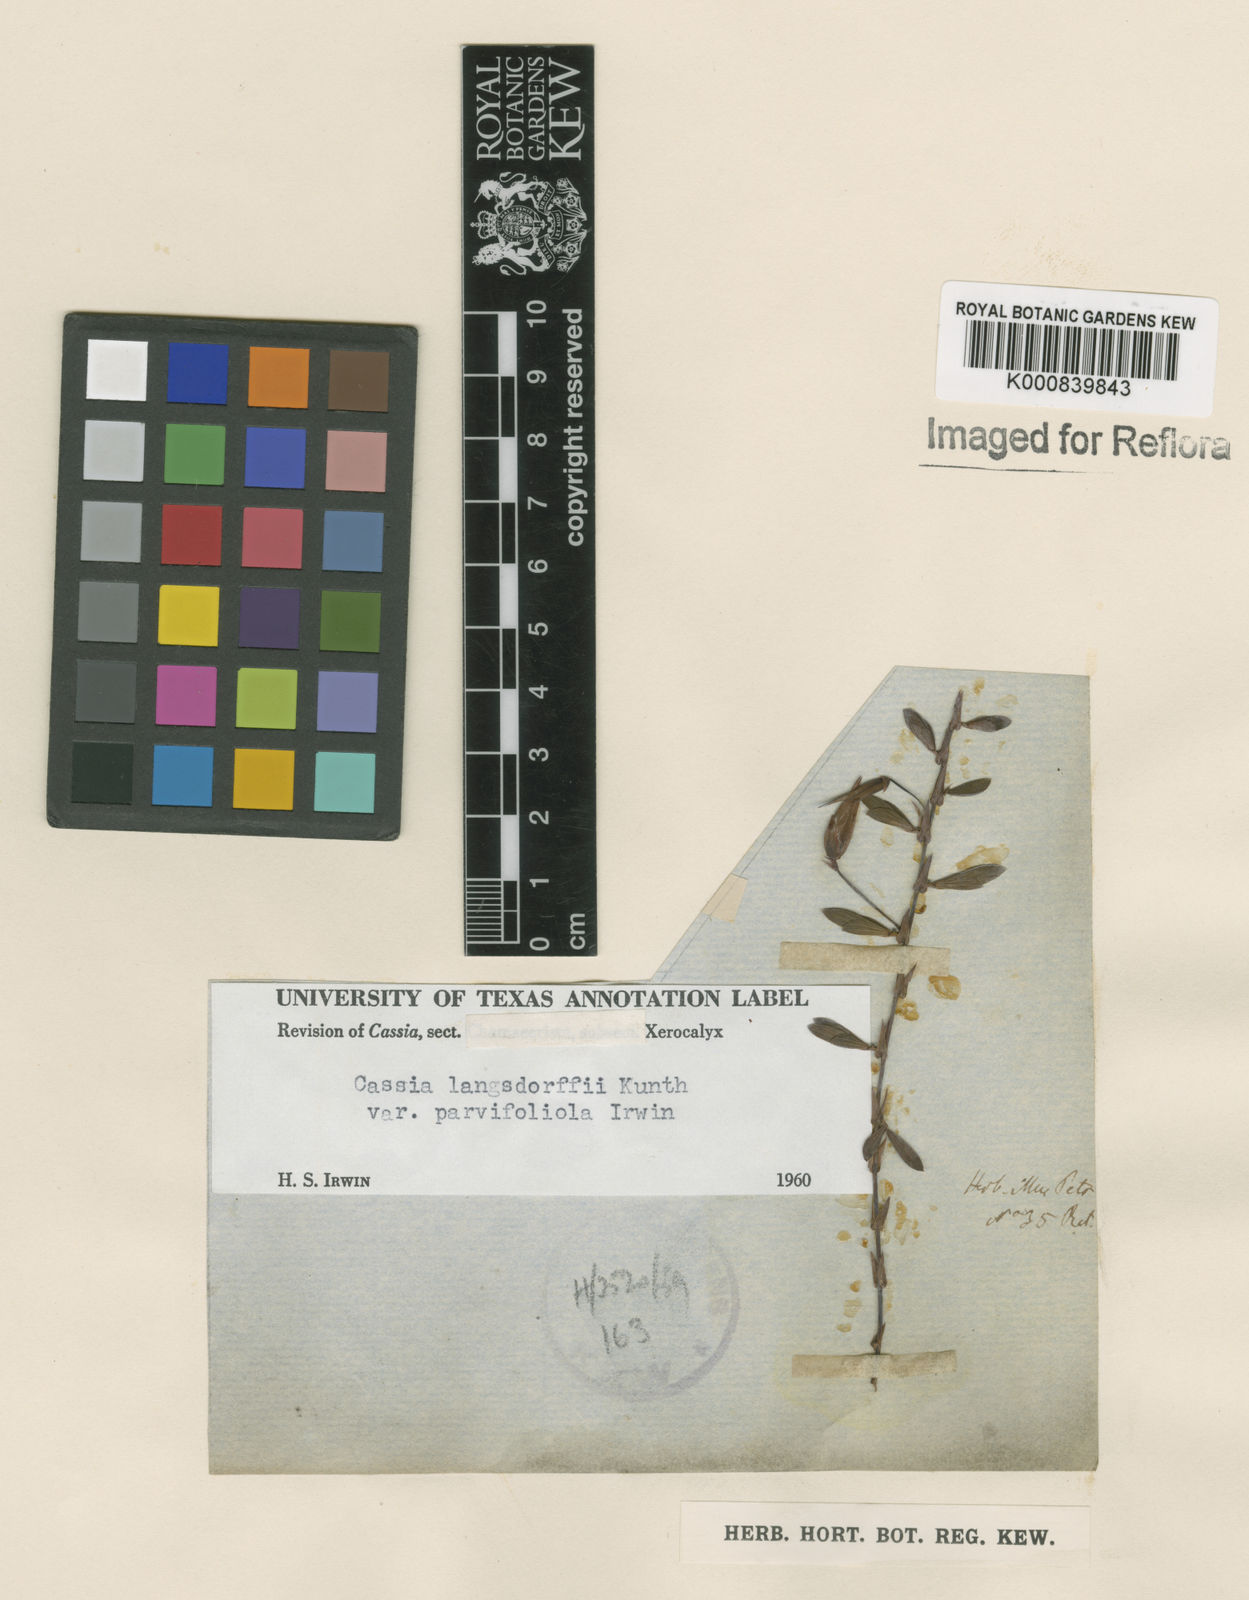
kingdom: Plantae
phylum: Tracheophyta
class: Magnoliopsida
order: Fabales
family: Fabaceae
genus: Chamaecrista
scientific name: Chamaecrista ramosa
